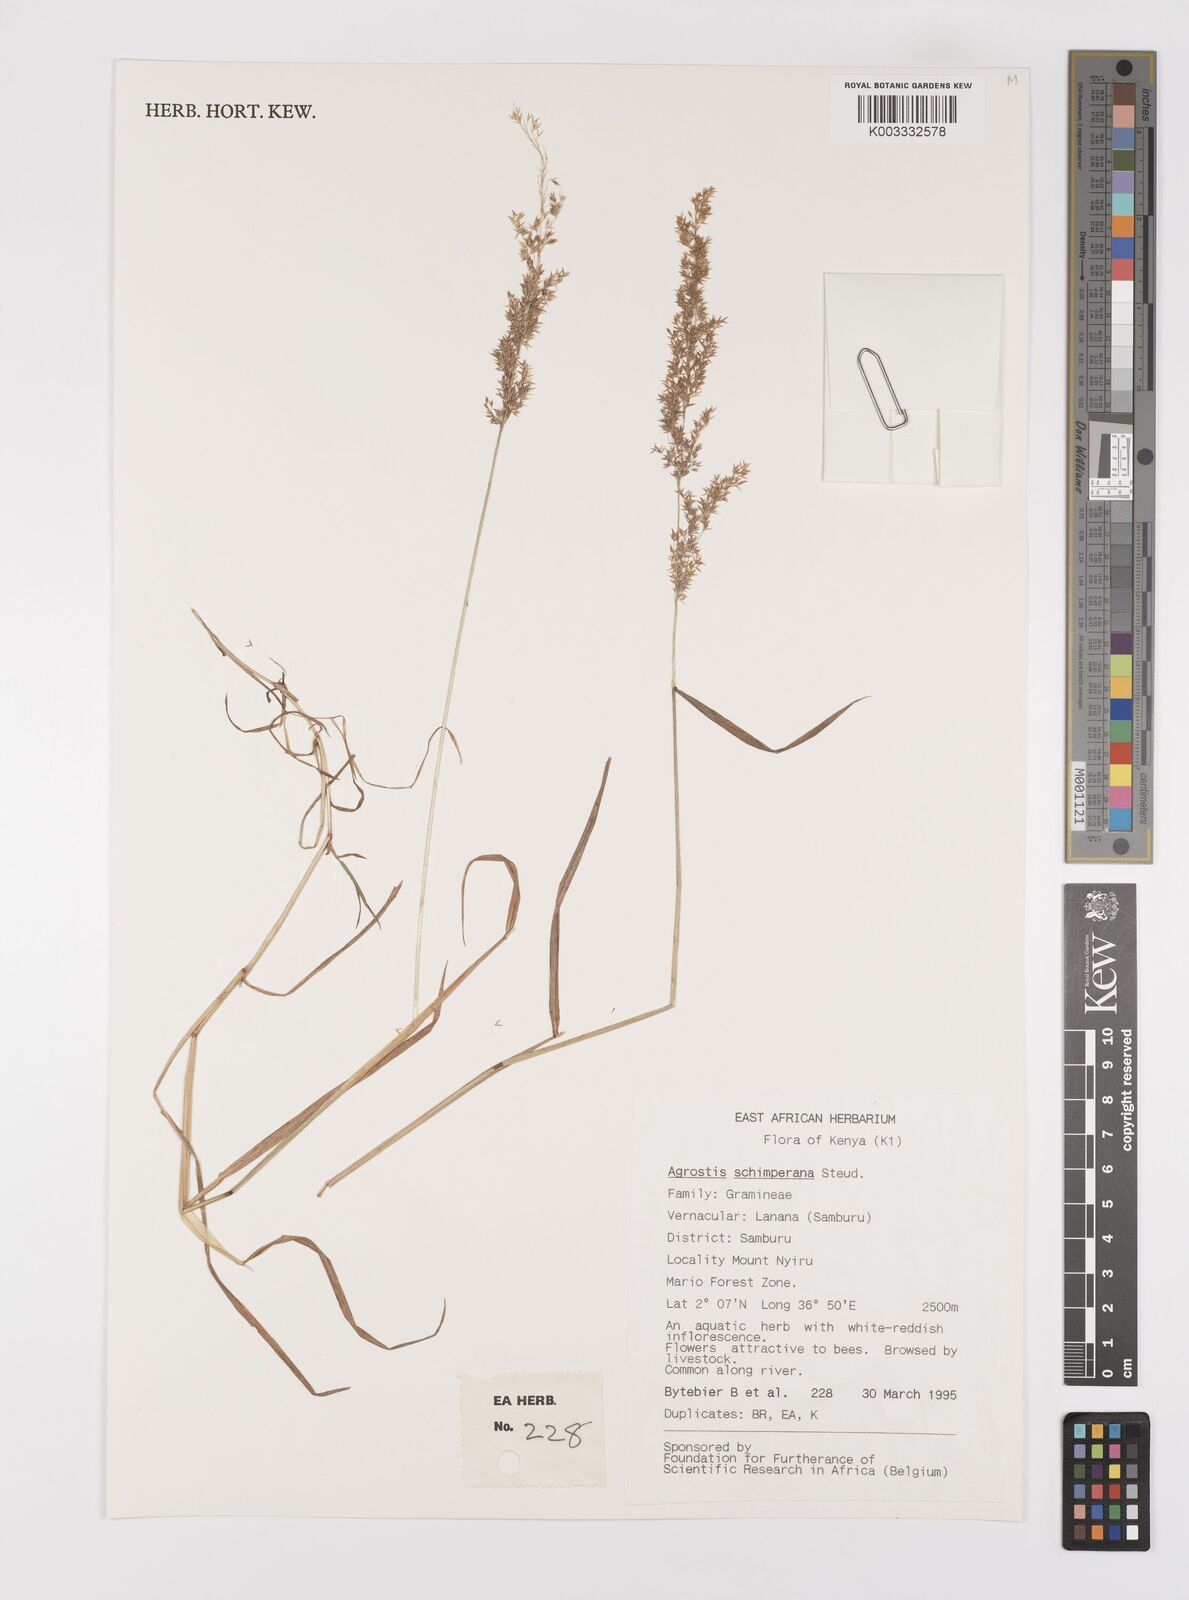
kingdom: Plantae
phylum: Tracheophyta
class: Liliopsida
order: Poales
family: Poaceae
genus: Polypogon
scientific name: Polypogon schimperianus
